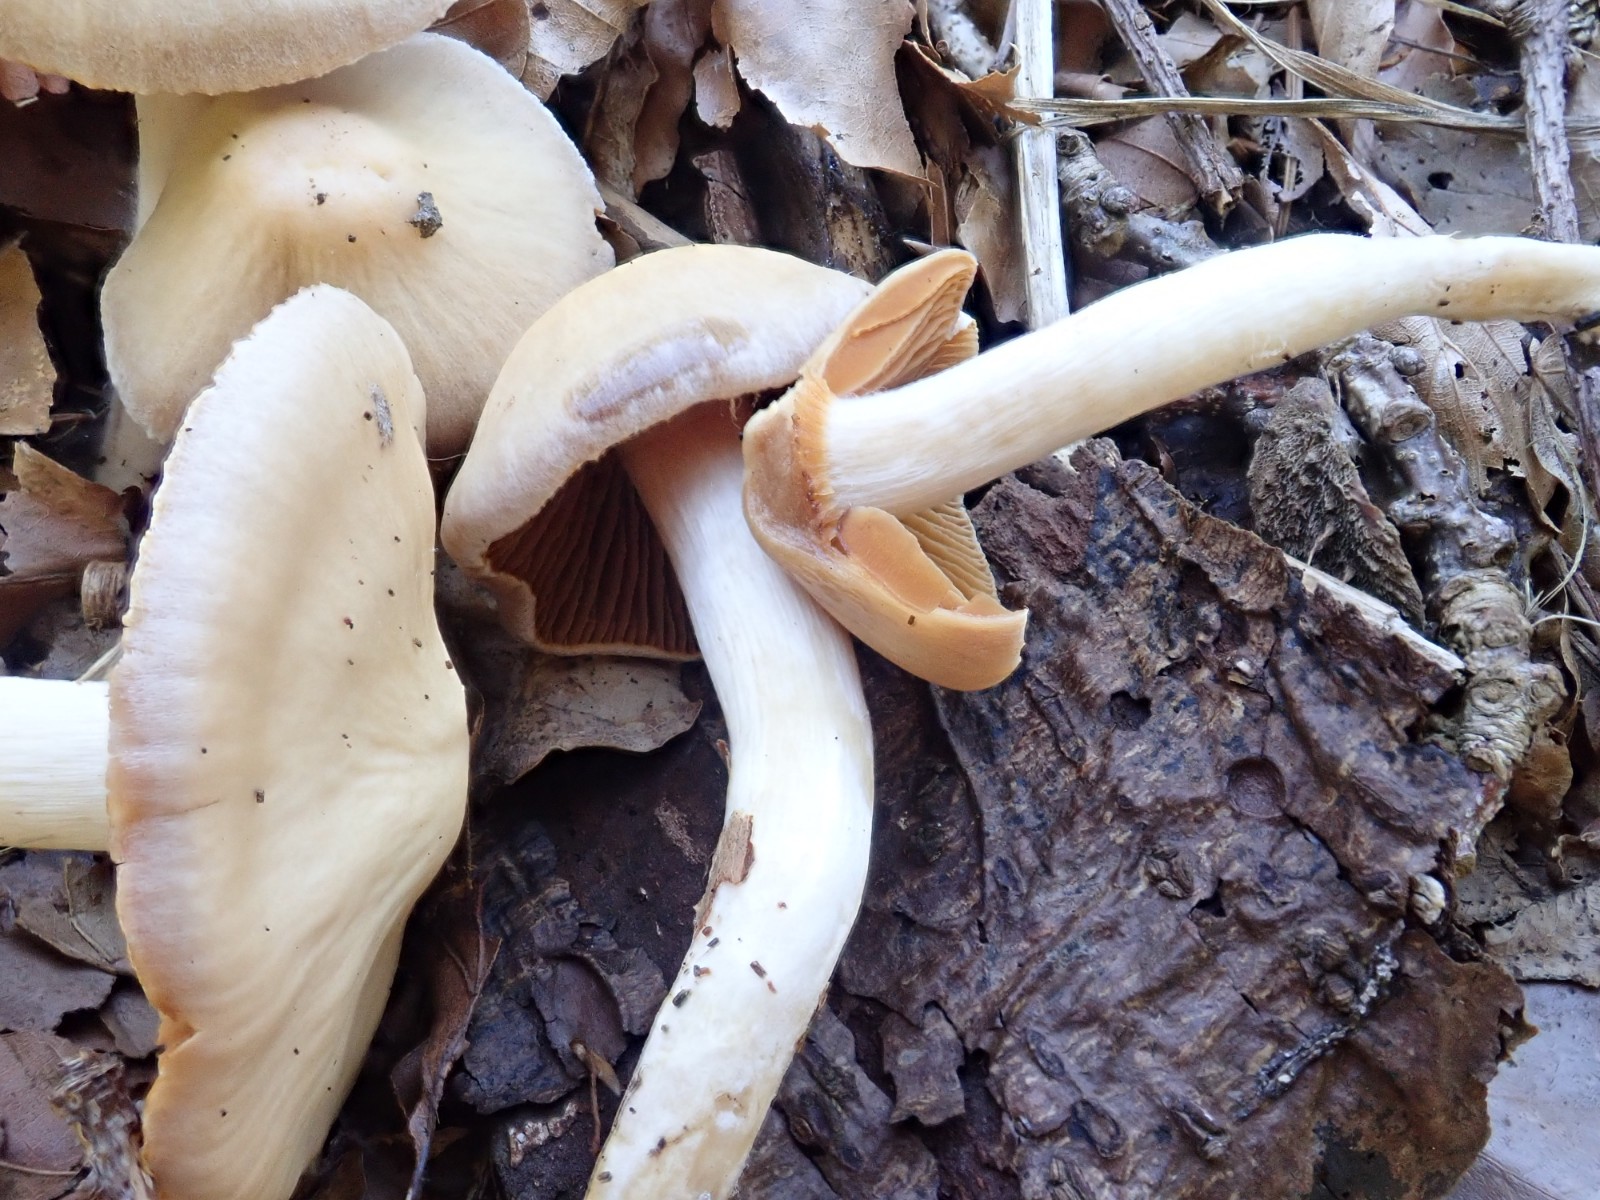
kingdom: Fungi
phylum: Basidiomycota
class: Agaricomycetes
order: Agaricales
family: Cortinariaceae
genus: Cortinarius
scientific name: Cortinarius
